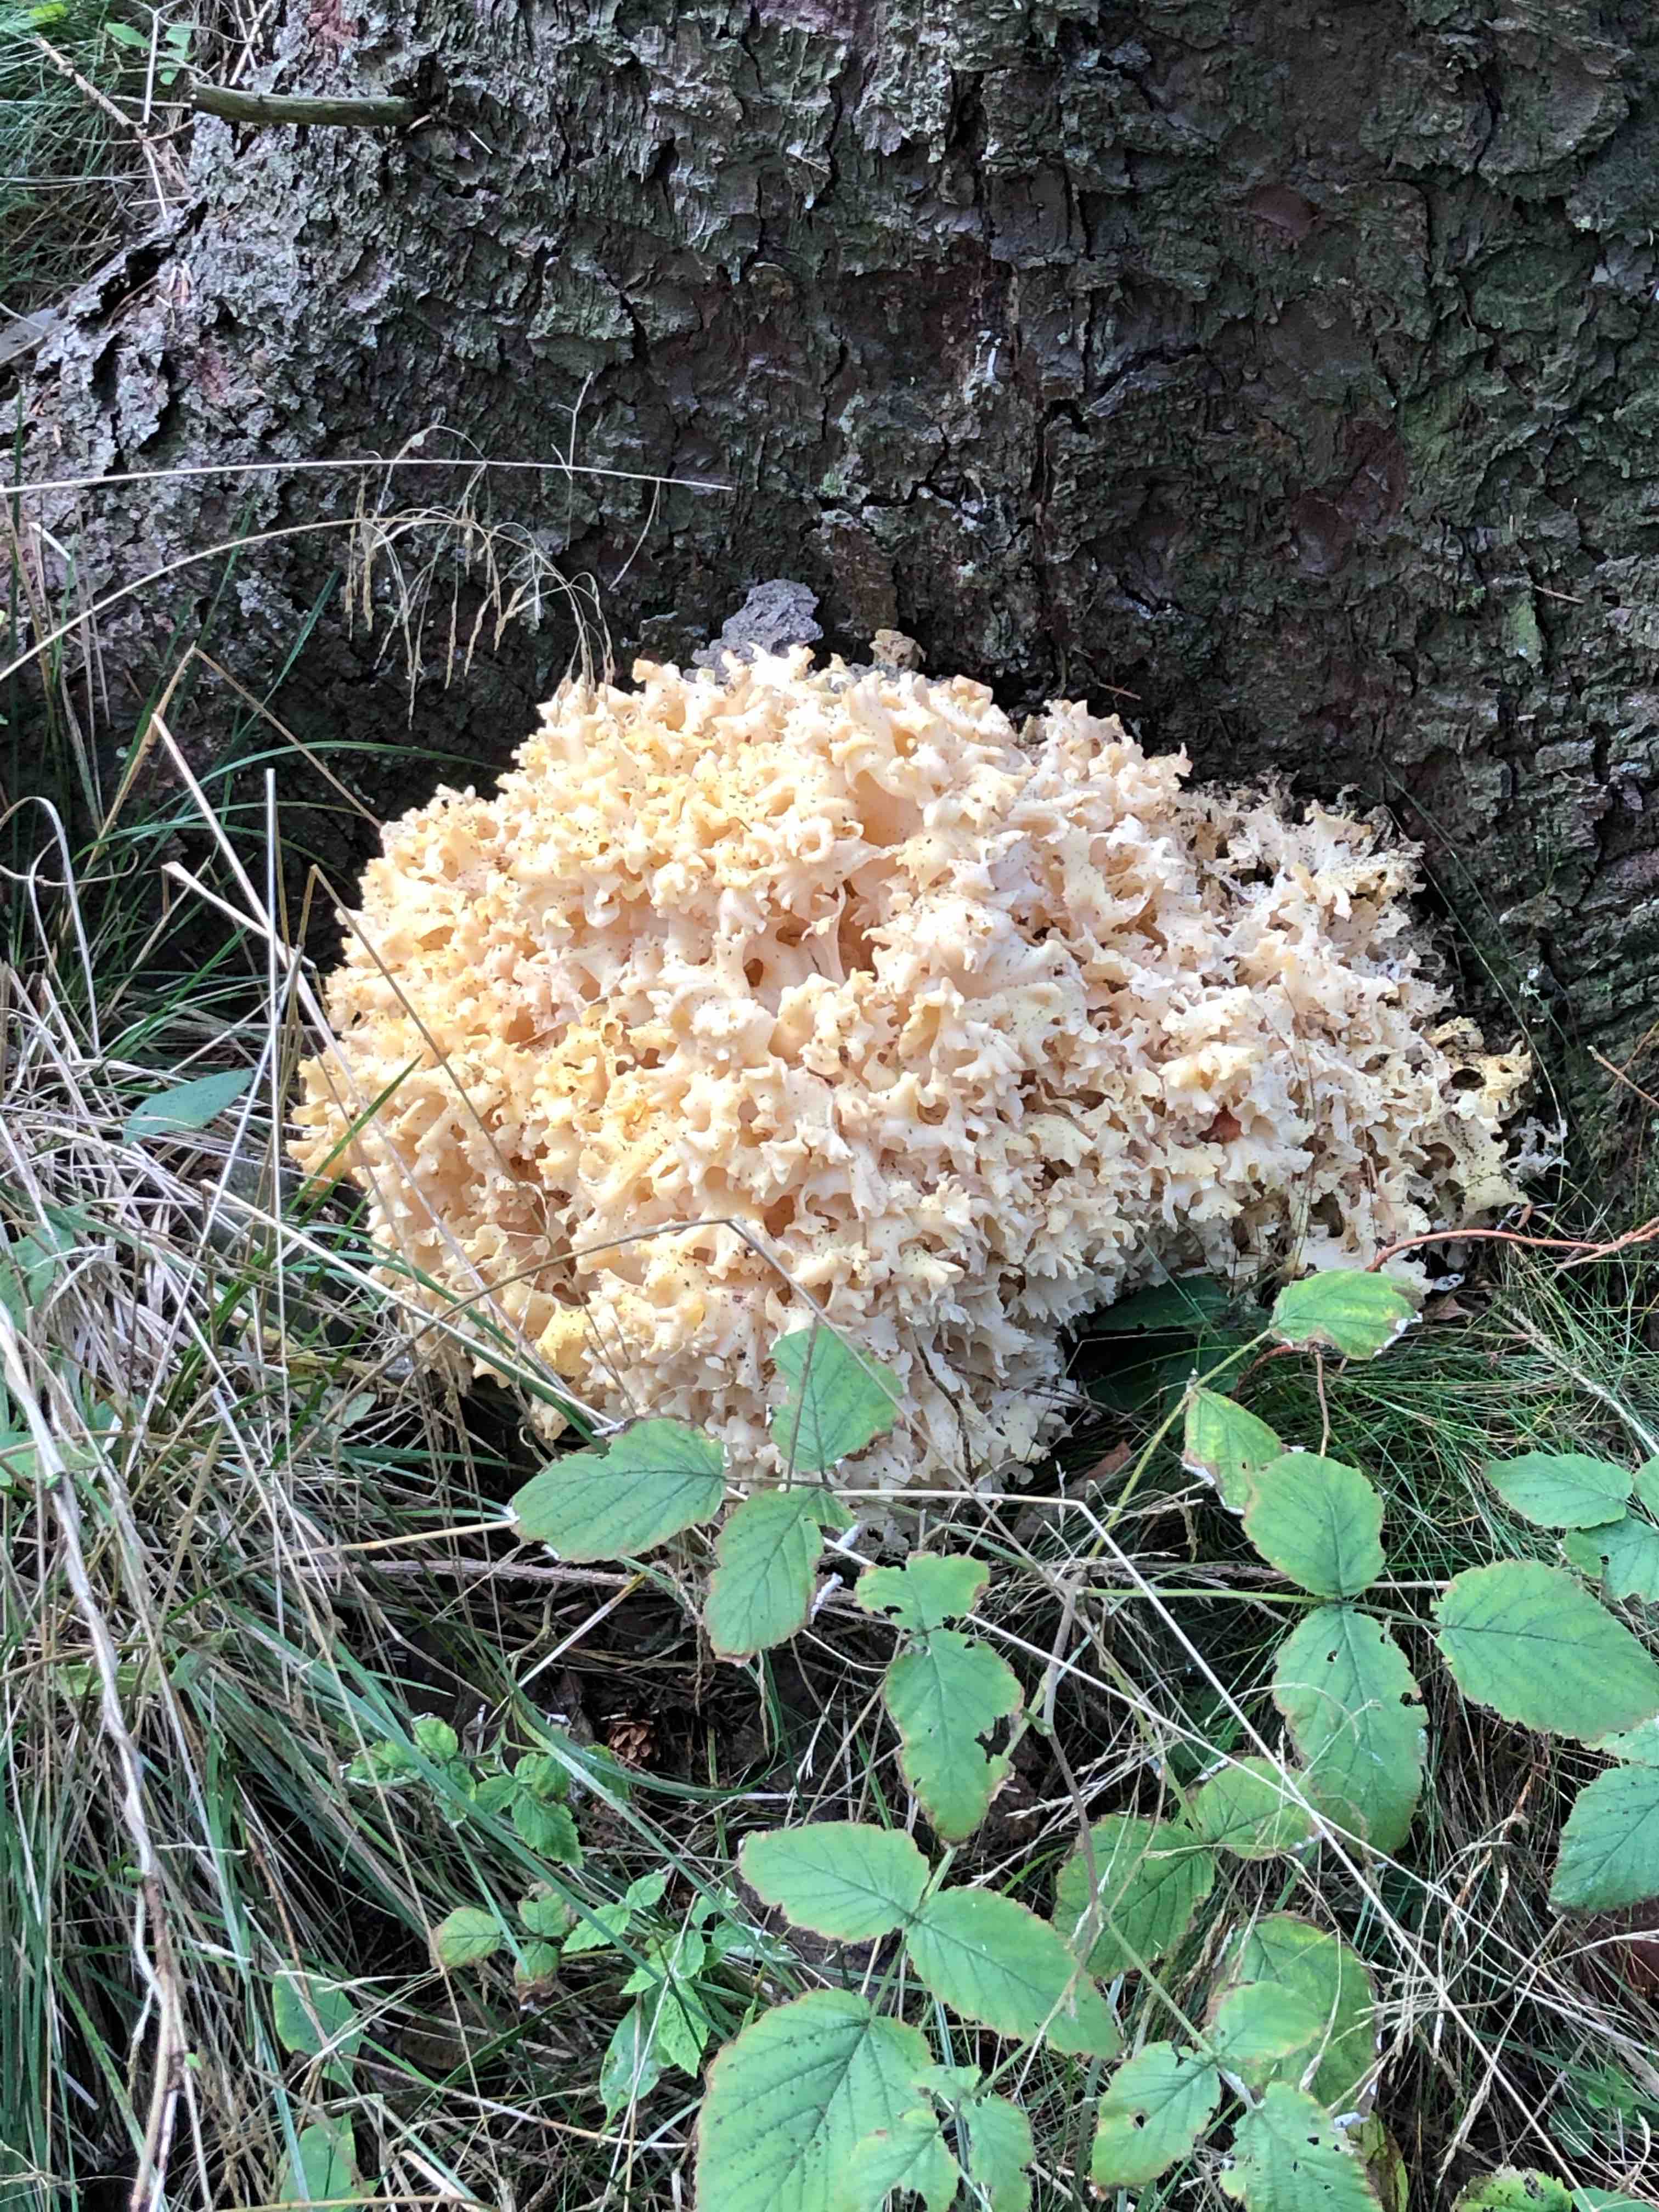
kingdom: Fungi
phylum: Basidiomycota
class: Agaricomycetes
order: Polyporales
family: Sparassidaceae
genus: Sparassis
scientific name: Sparassis crispa
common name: kruset blomkålssvamp
